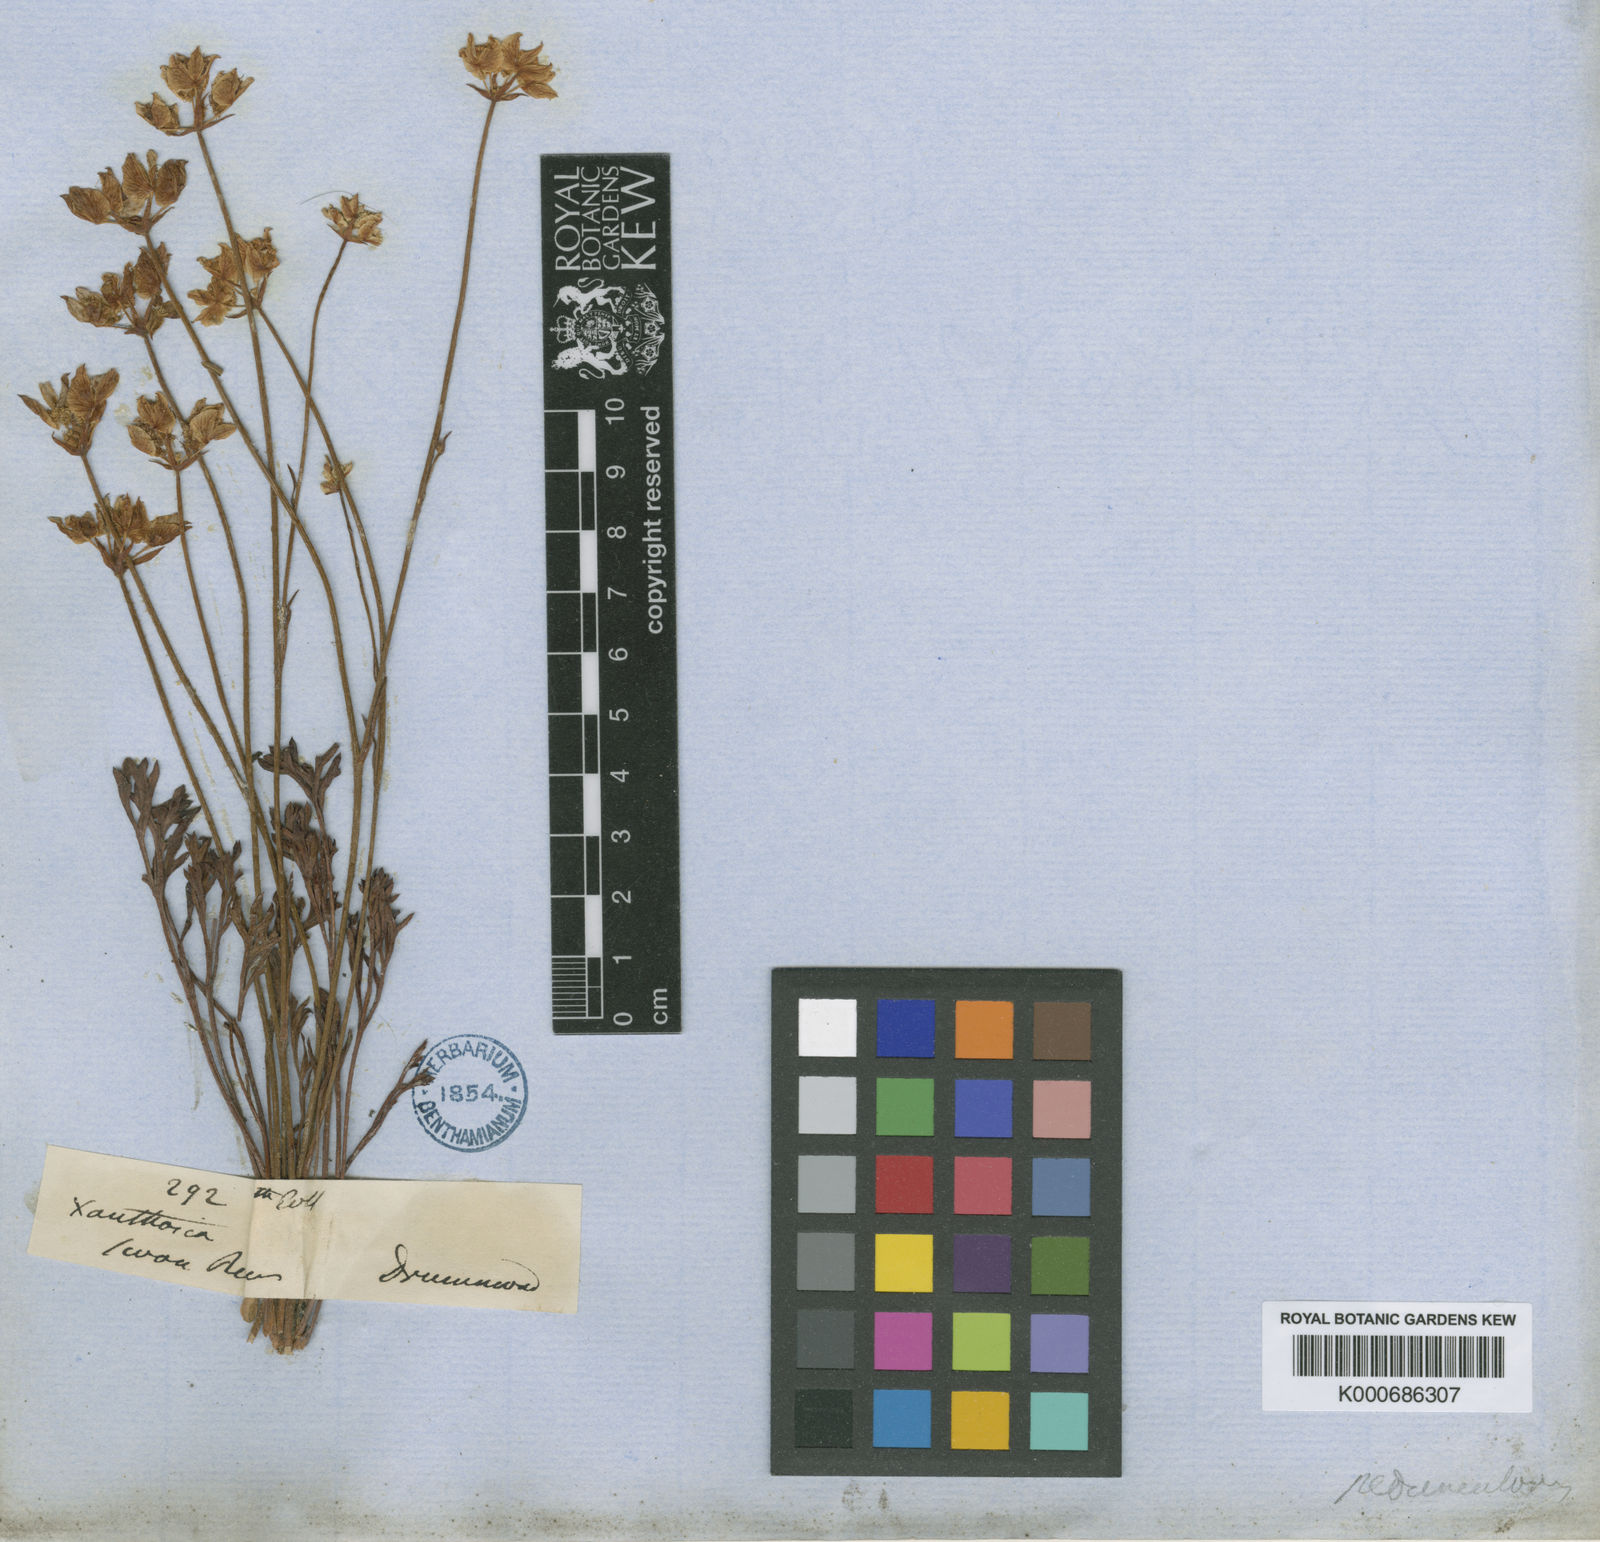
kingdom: Plantae
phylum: Tracheophyta
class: Magnoliopsida
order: Apiales
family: Apiaceae
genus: Xanthosia
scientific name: Xanthosia peduncularis
